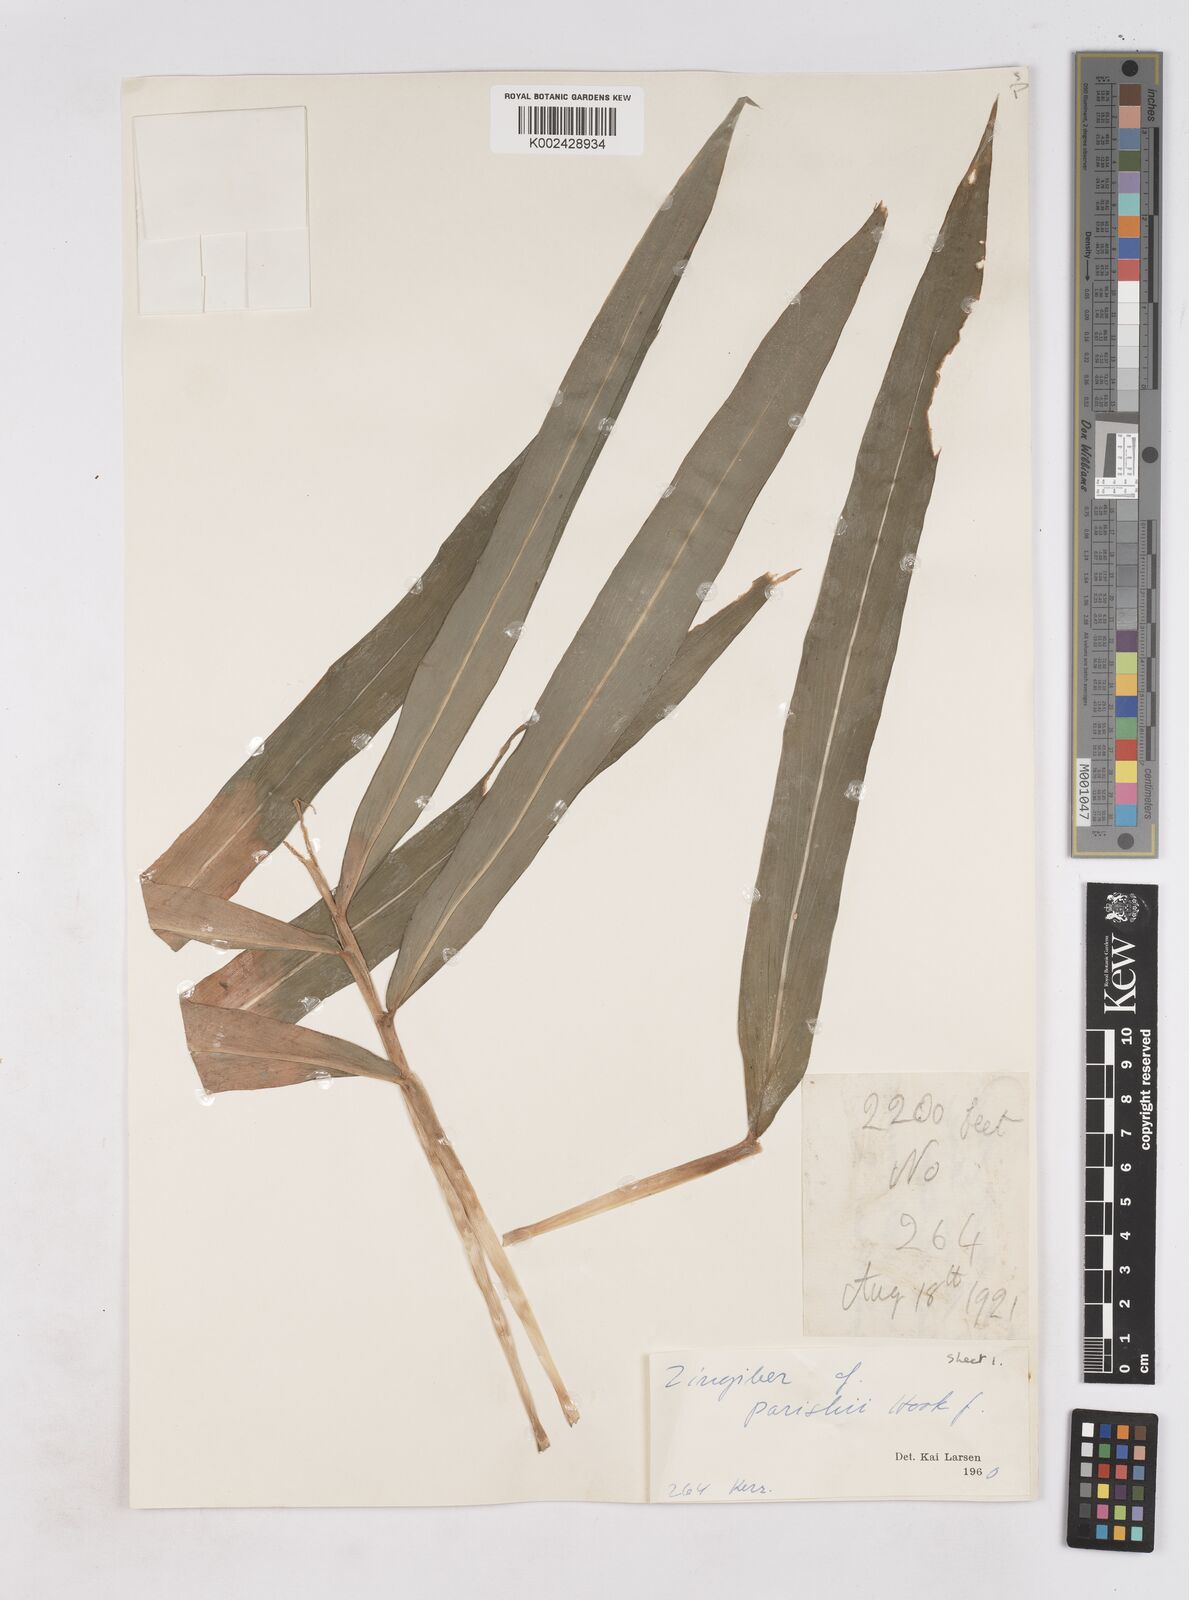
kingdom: Plantae
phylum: Tracheophyta
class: Liliopsida
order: Zingiberales
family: Zingiberaceae
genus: Zingiber
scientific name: Zingiber parishii
